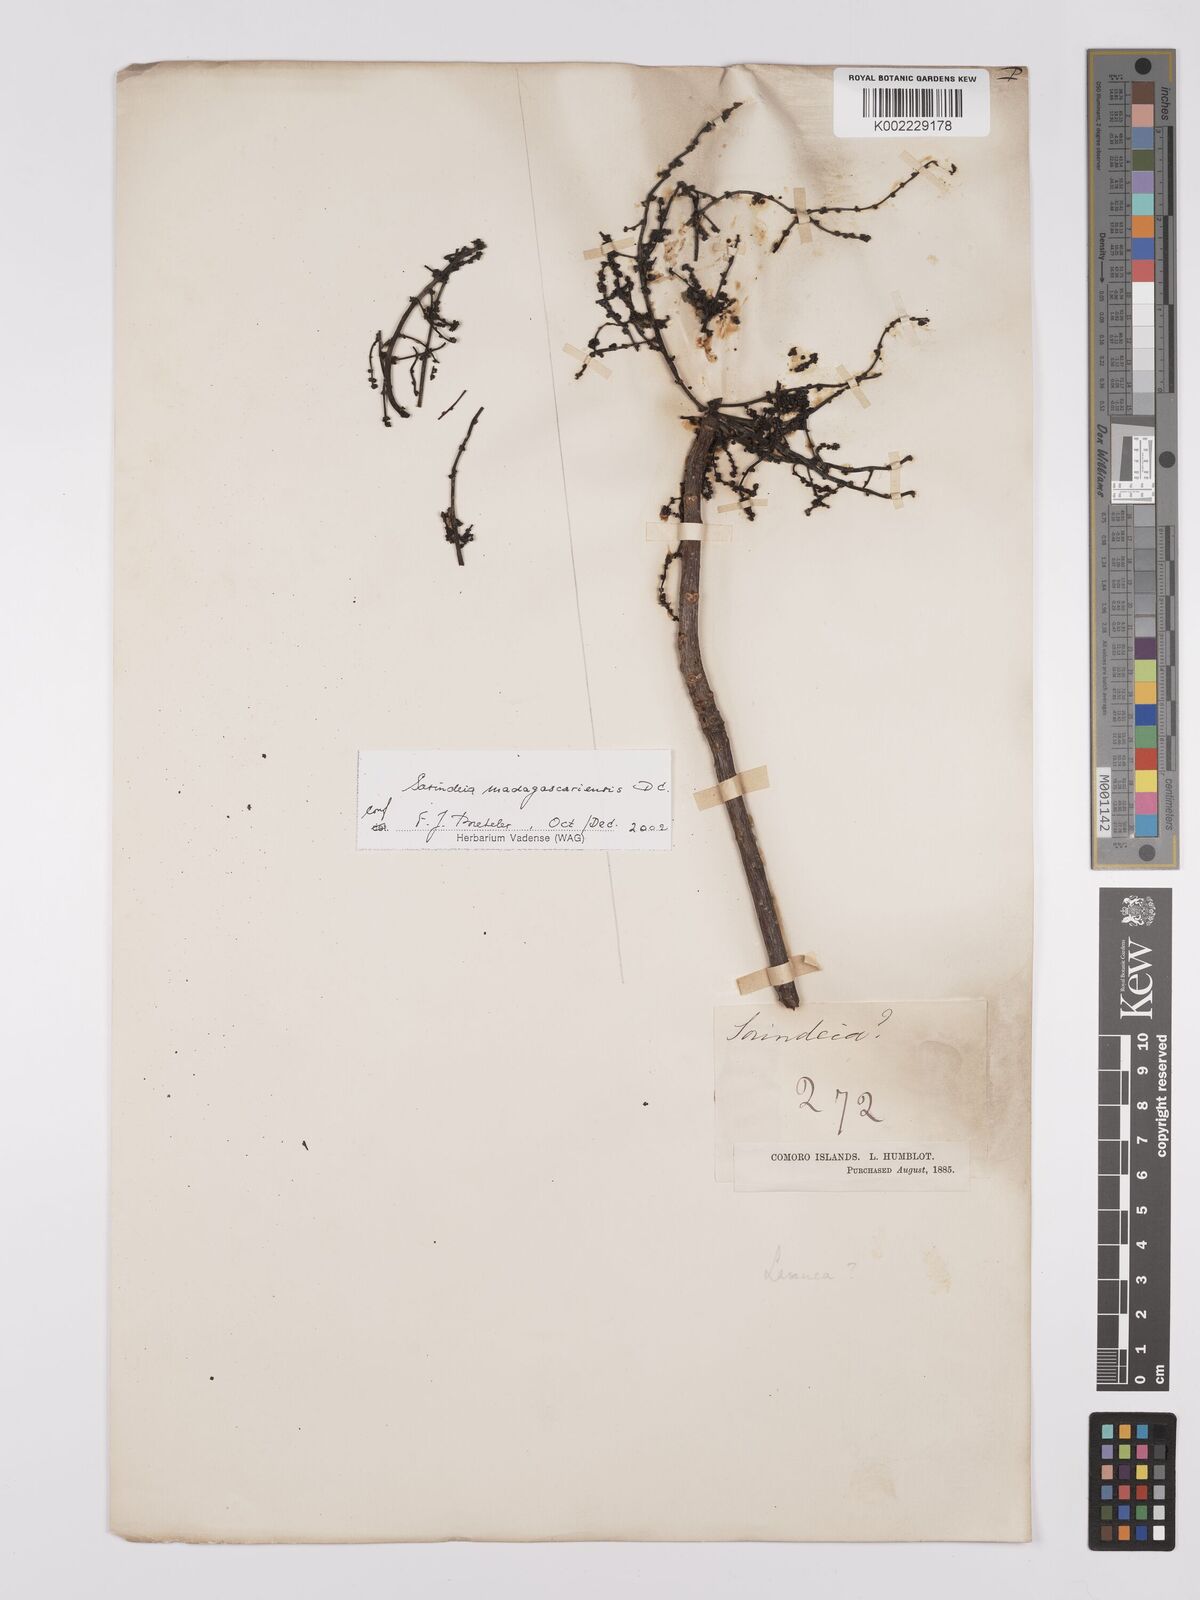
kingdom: Plantae
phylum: Tracheophyta
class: Magnoliopsida
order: Sapindales
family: Anacardiaceae
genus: Sorindeia
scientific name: Sorindeia
